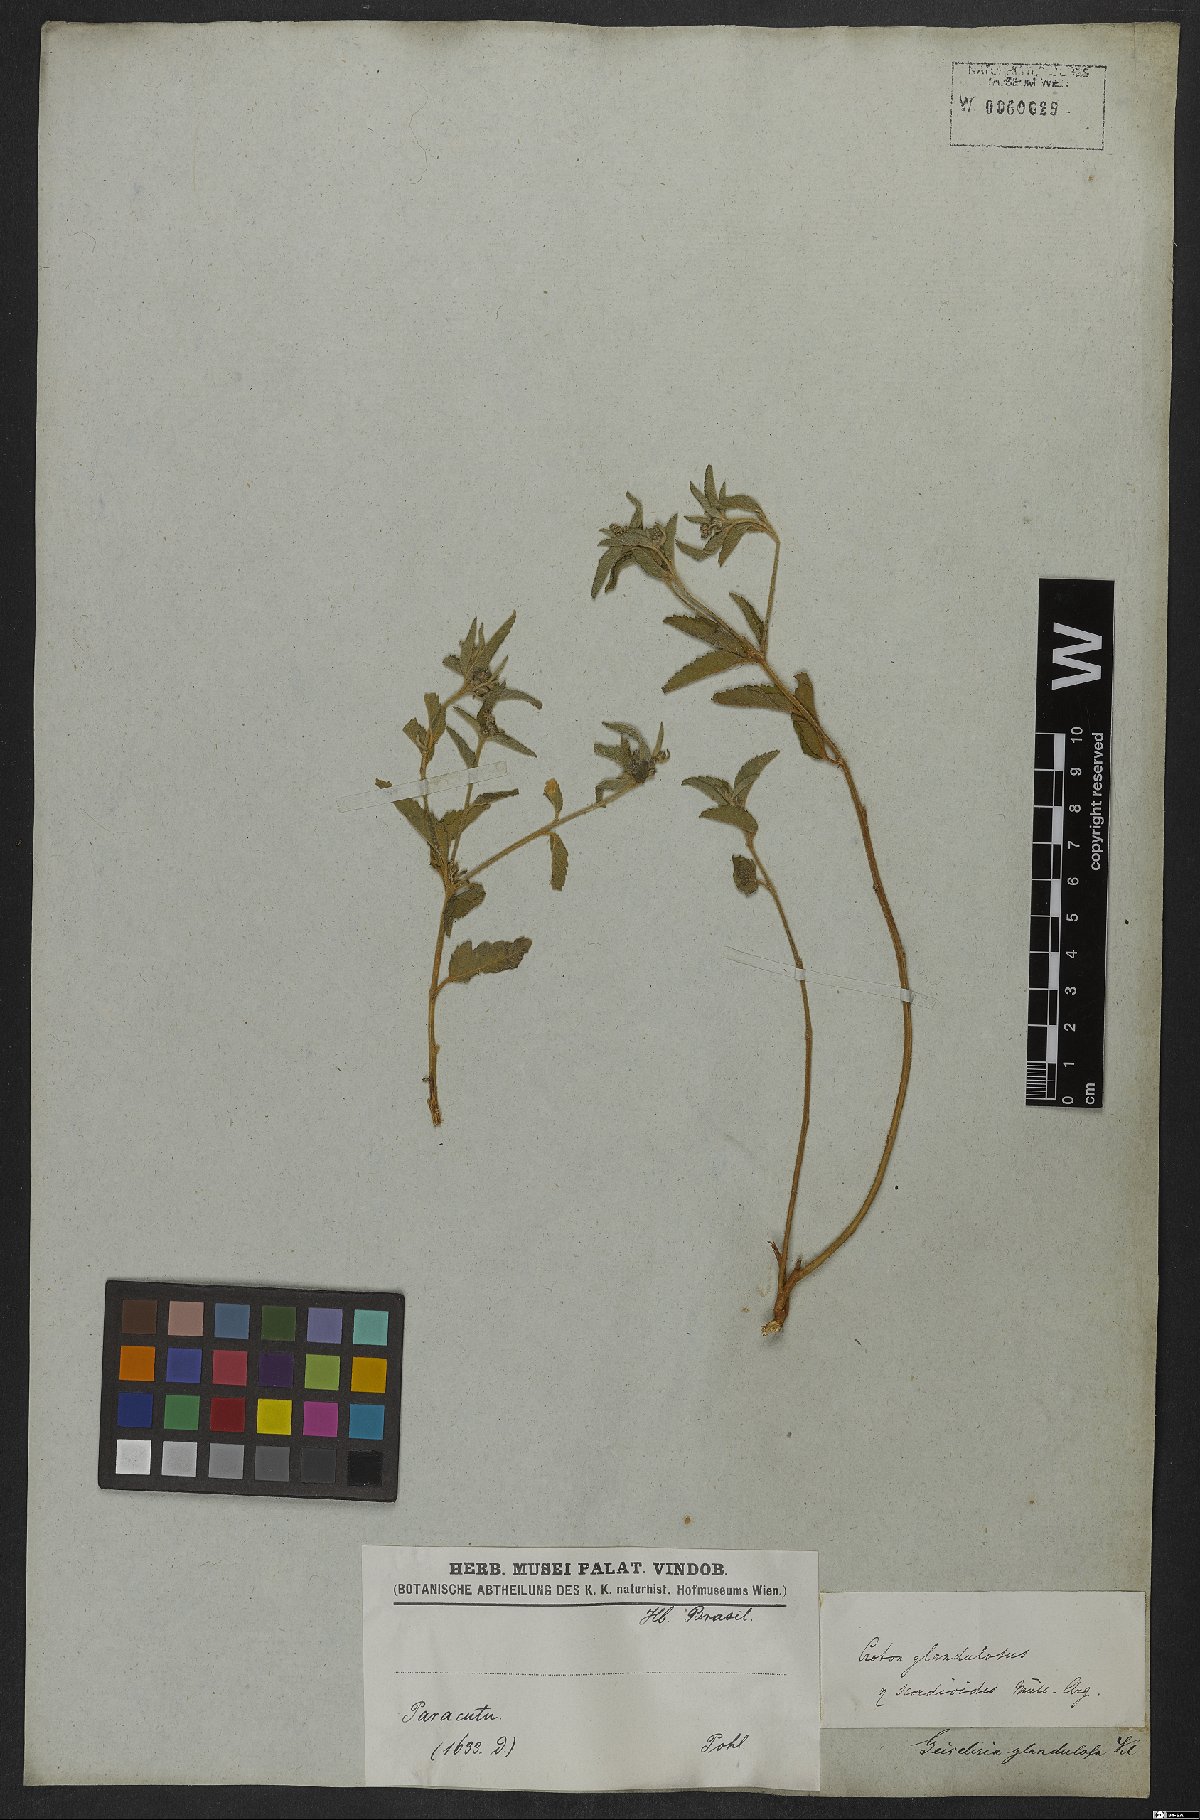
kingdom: Plantae
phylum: Tracheophyta
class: Magnoliopsida
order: Malpighiales
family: Euphorbiaceae
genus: Croton
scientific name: Croton glandulosus
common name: Tropic croton
